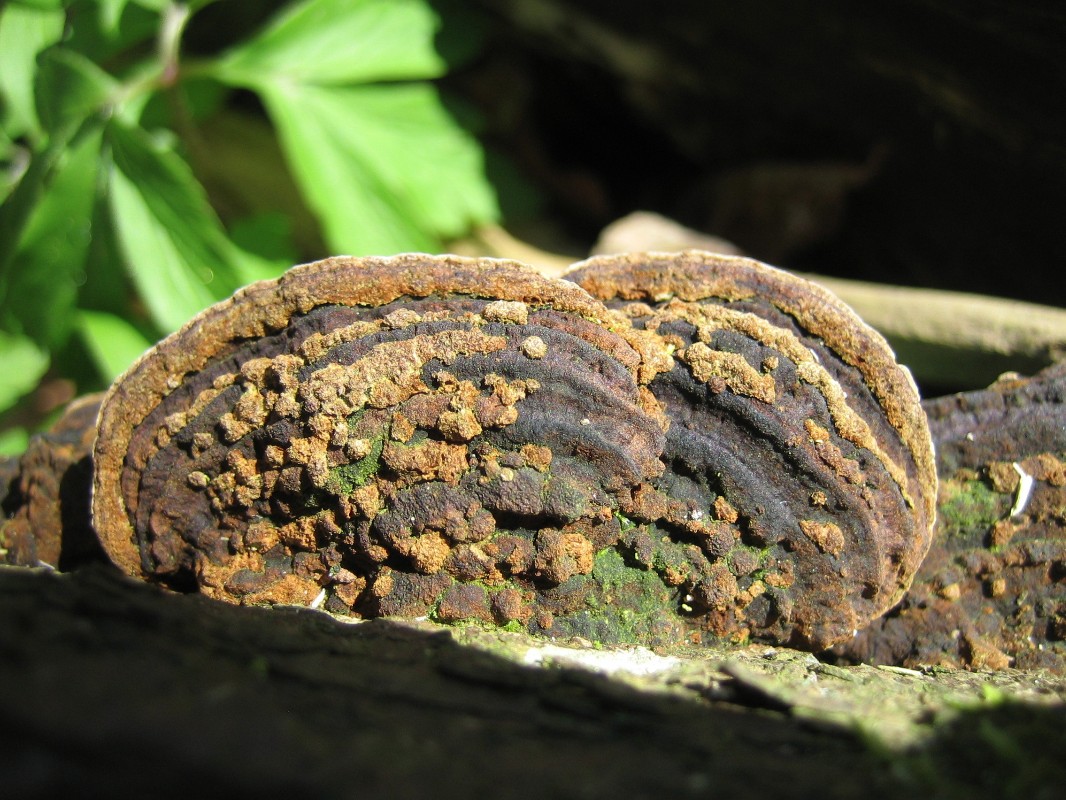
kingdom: Fungi
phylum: Basidiomycota
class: Agaricomycetes
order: Hymenochaetales
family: Hymenochaetaceae
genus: Phellinopsis
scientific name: Phellinopsis conchata
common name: pile-ildporesvamp
